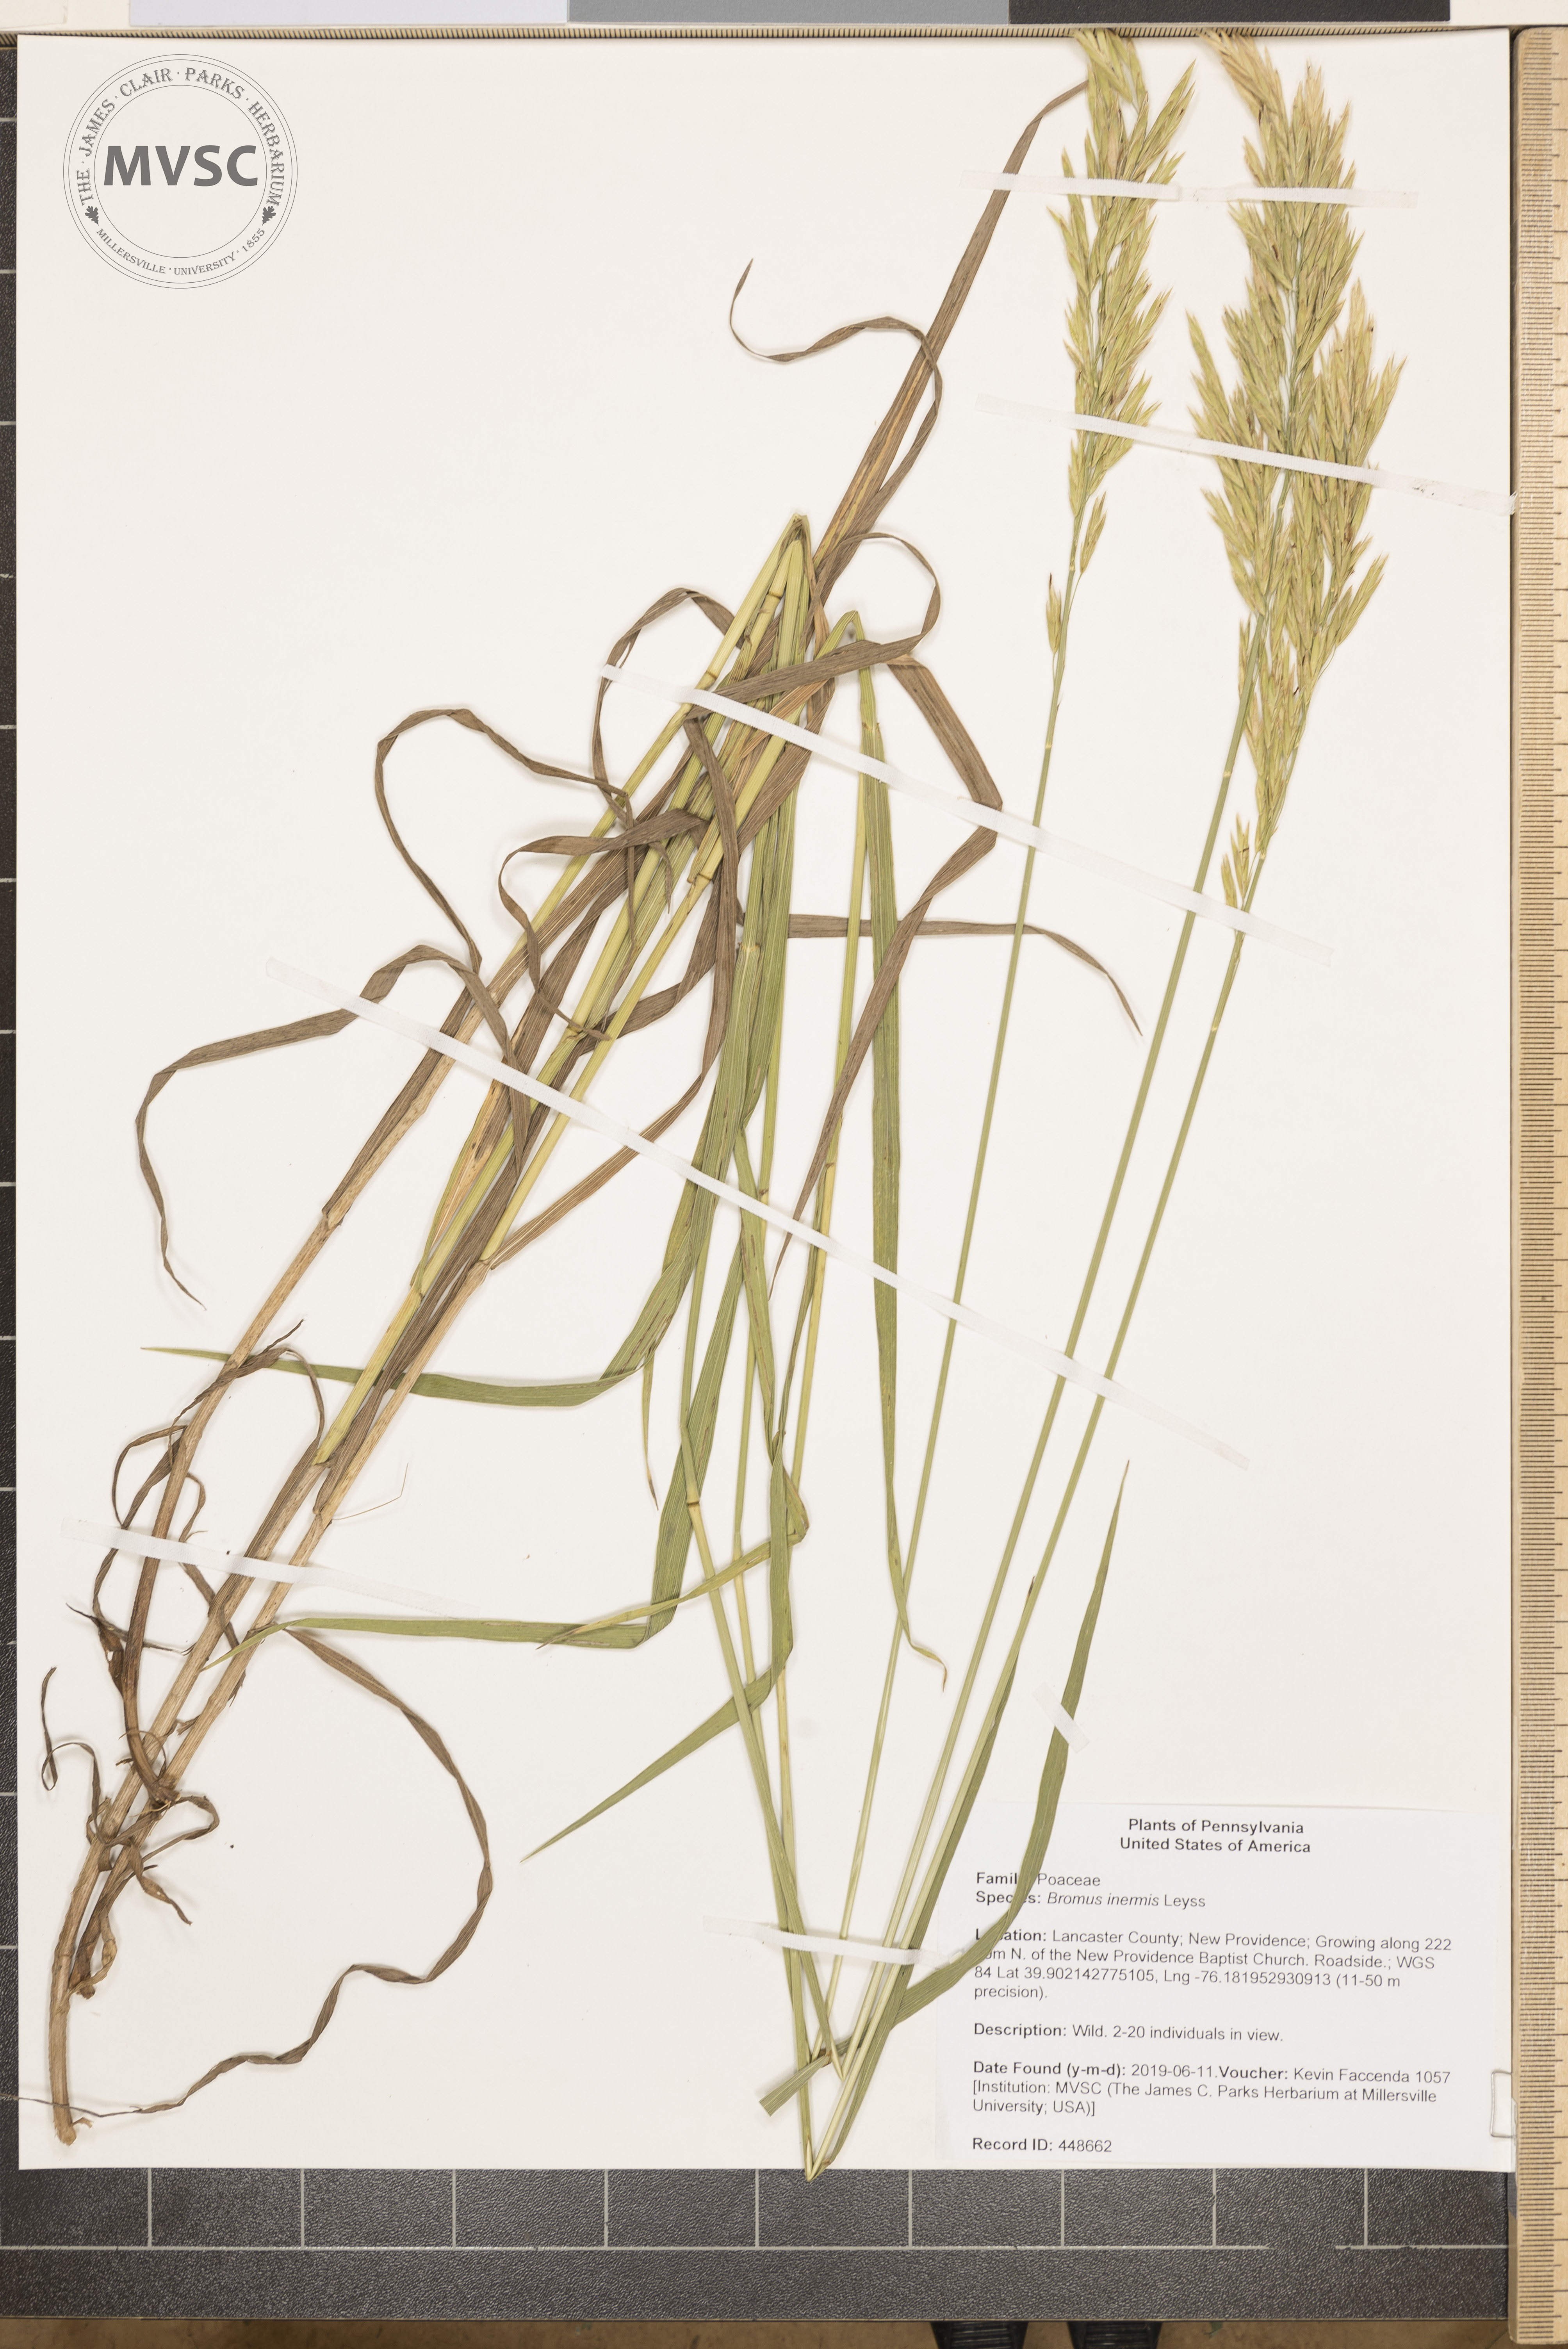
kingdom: Plantae
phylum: Tracheophyta
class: Liliopsida
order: Poales
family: Poaceae
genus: Bromus
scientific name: Bromus inermis
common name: Smooth brome
